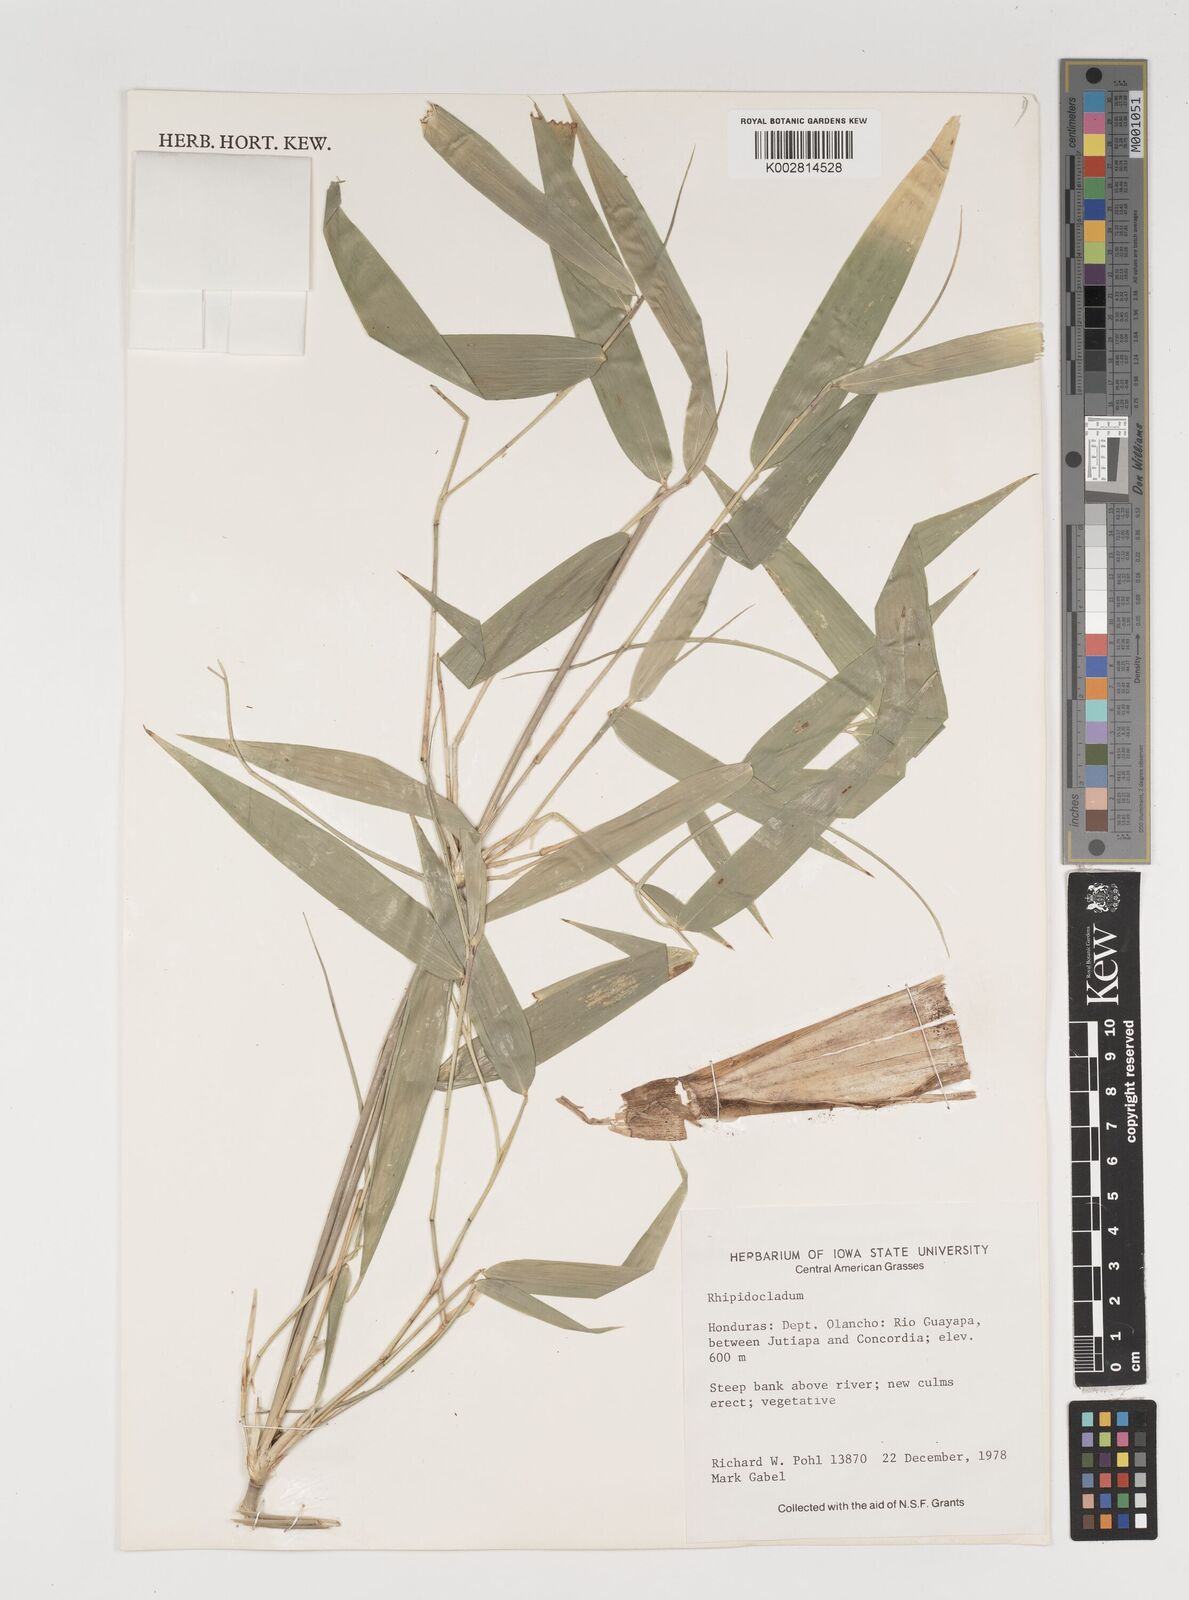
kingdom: Plantae
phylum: Tracheophyta
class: Liliopsida
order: Poales
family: Poaceae
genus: Rhipidocladum
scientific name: Rhipidocladum
